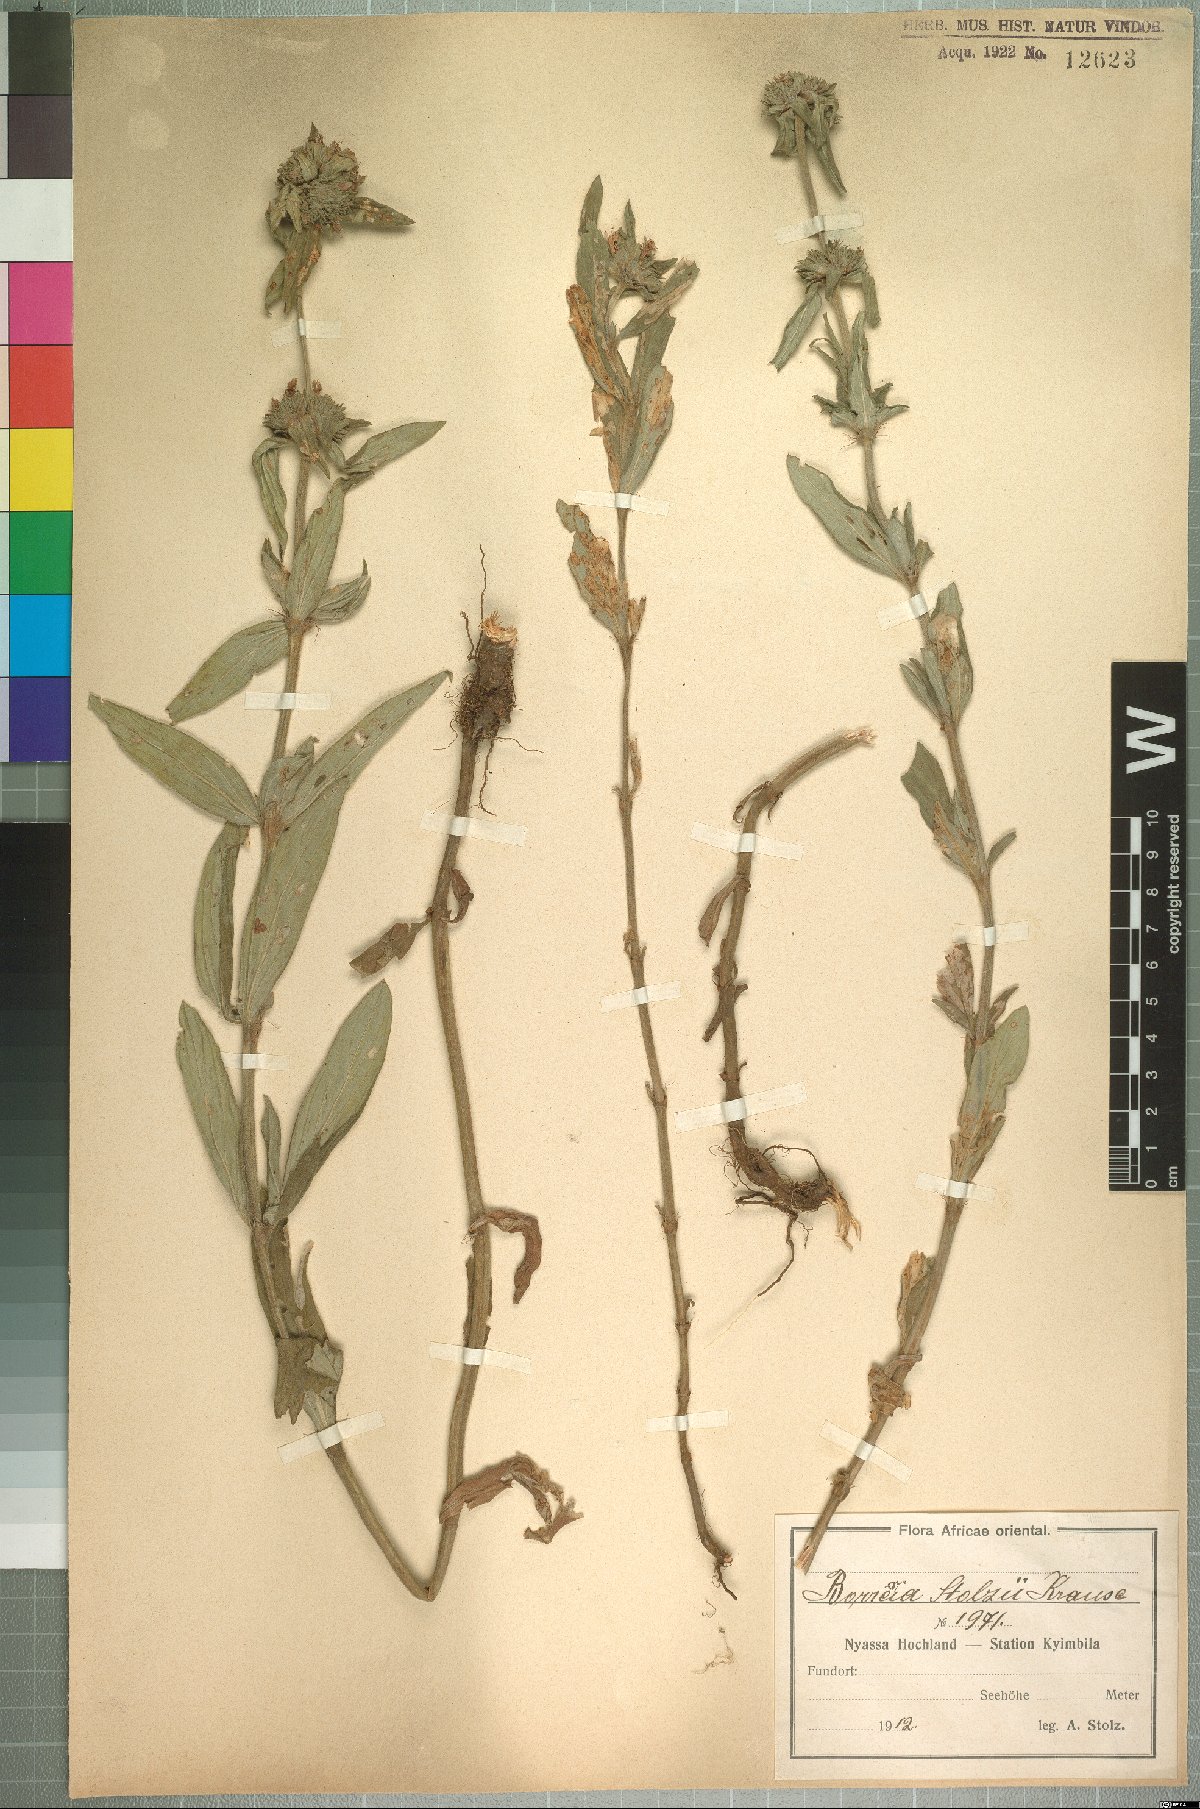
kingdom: Plantae
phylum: Tracheophyta
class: Magnoliopsida
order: Gentianales
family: Rubiaceae
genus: Spermacoce
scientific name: Spermacoce senensis
